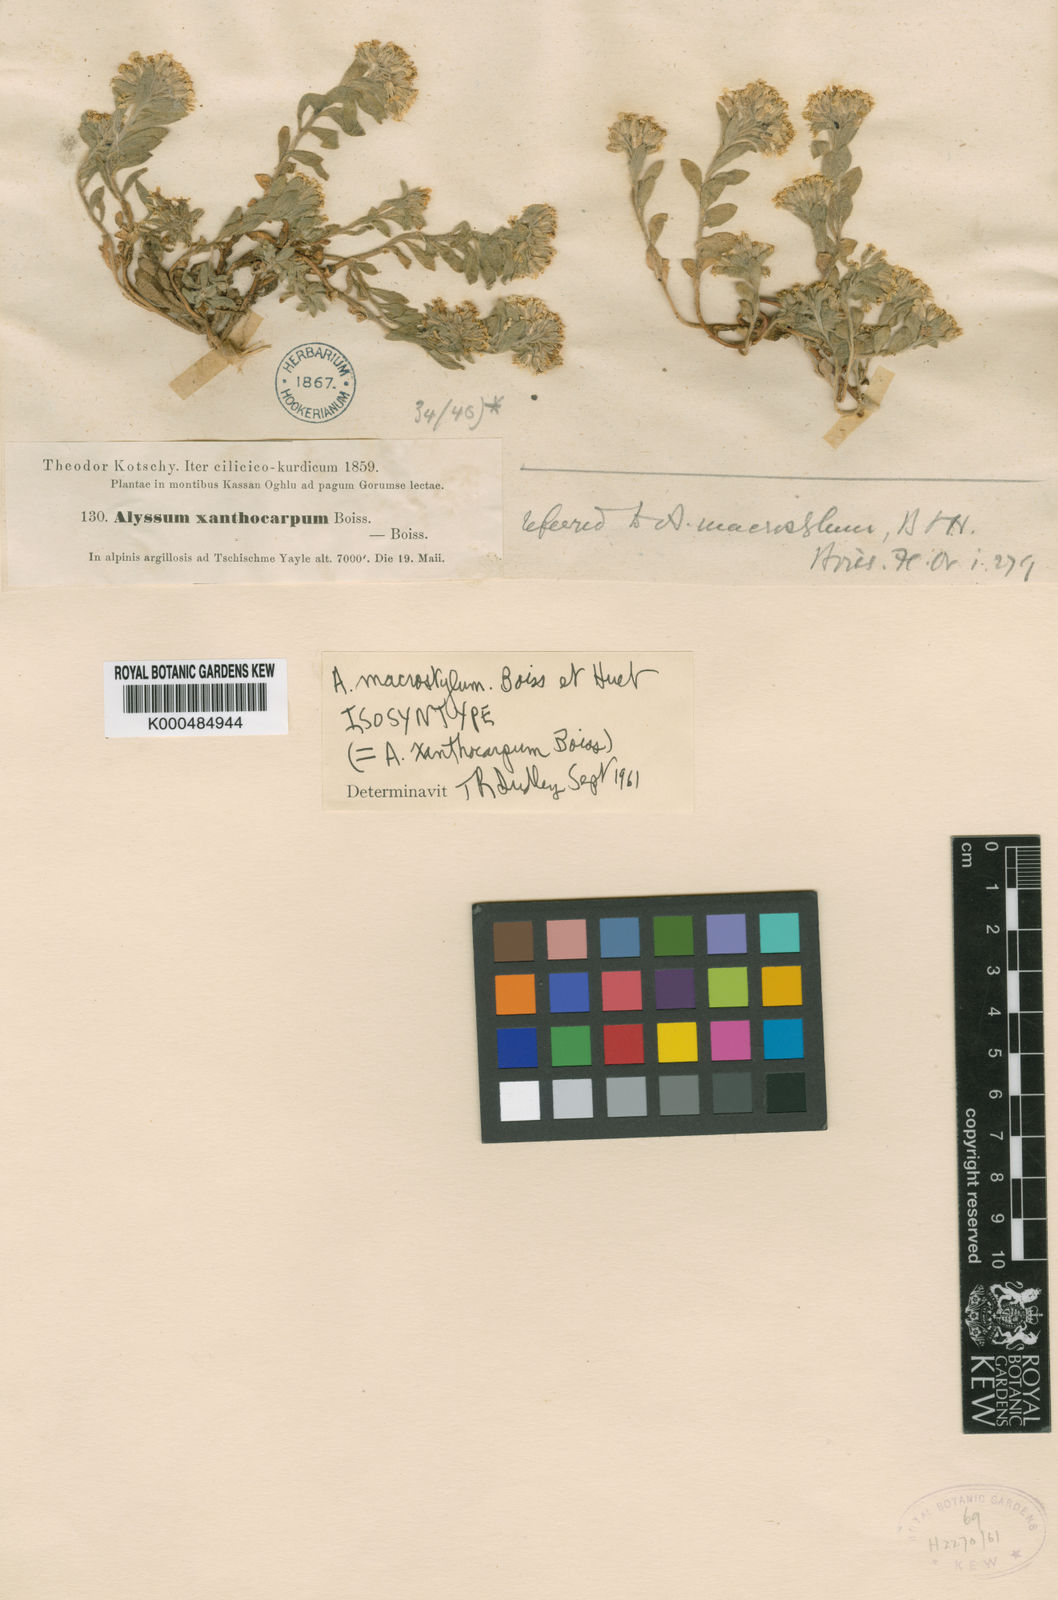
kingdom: Plantae
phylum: Tracheophyta
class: Magnoliopsida
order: Brassicales
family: Brassicaceae
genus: Alyssum
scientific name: Alyssum xanthocarpum
